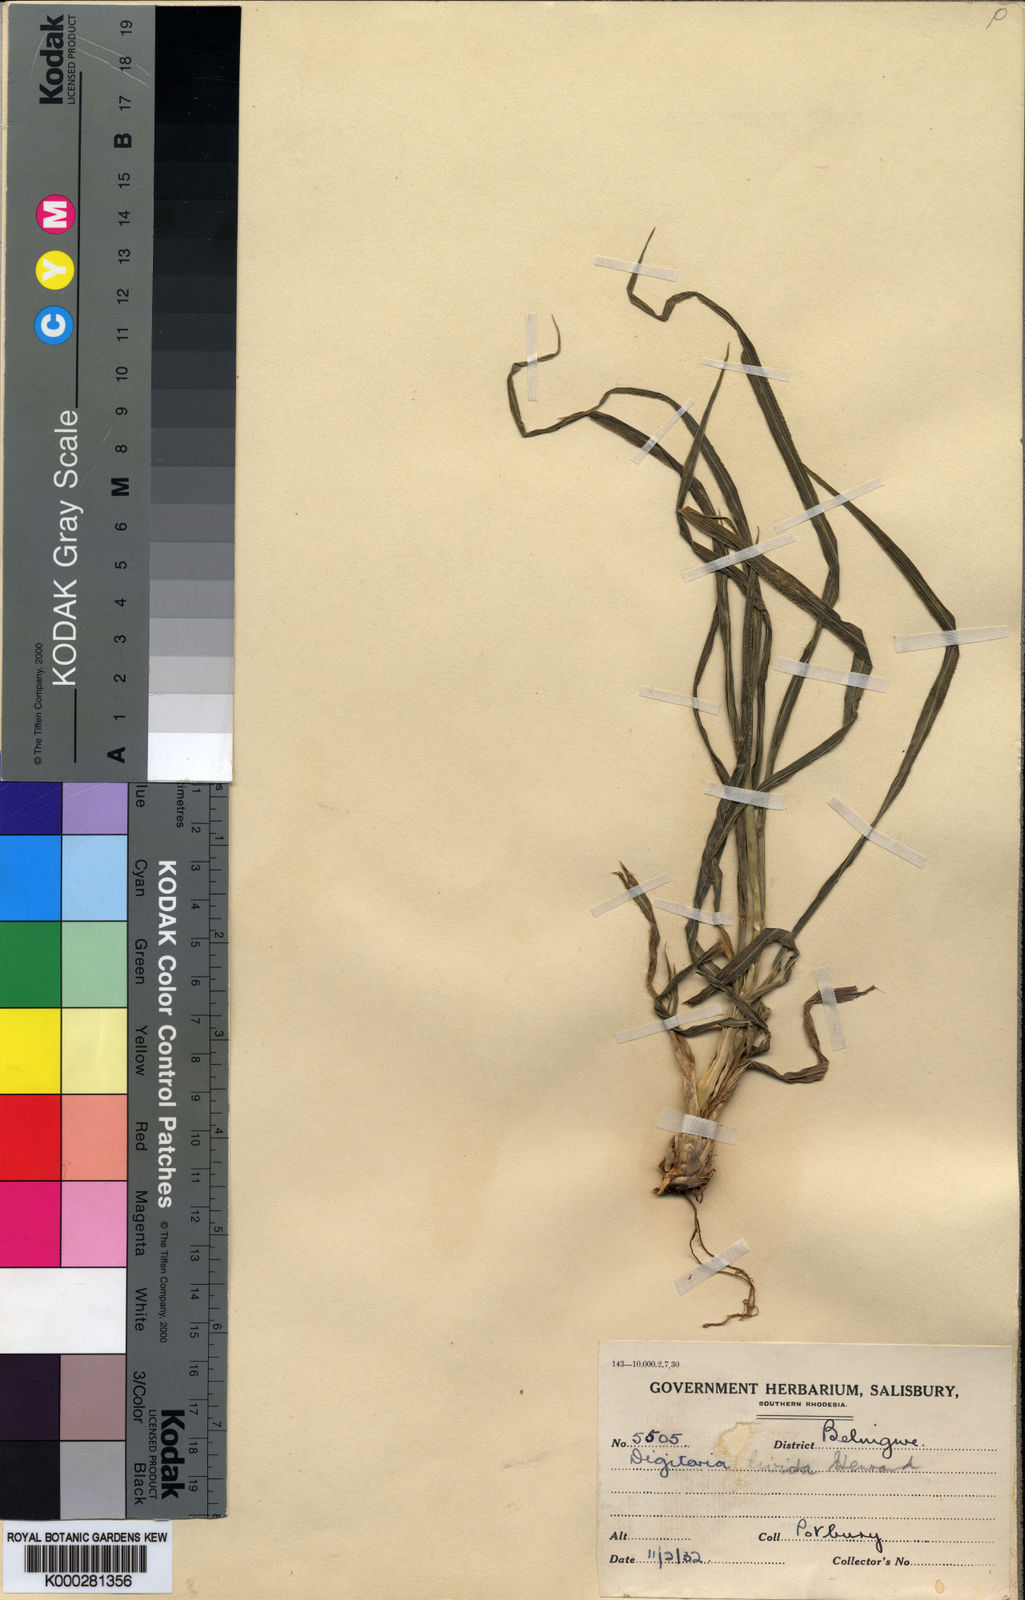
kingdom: Plantae
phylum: Tracheophyta
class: Liliopsida
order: Poales
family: Poaceae
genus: Digitaria
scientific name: Digitaria eriantha
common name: Digitgrass
